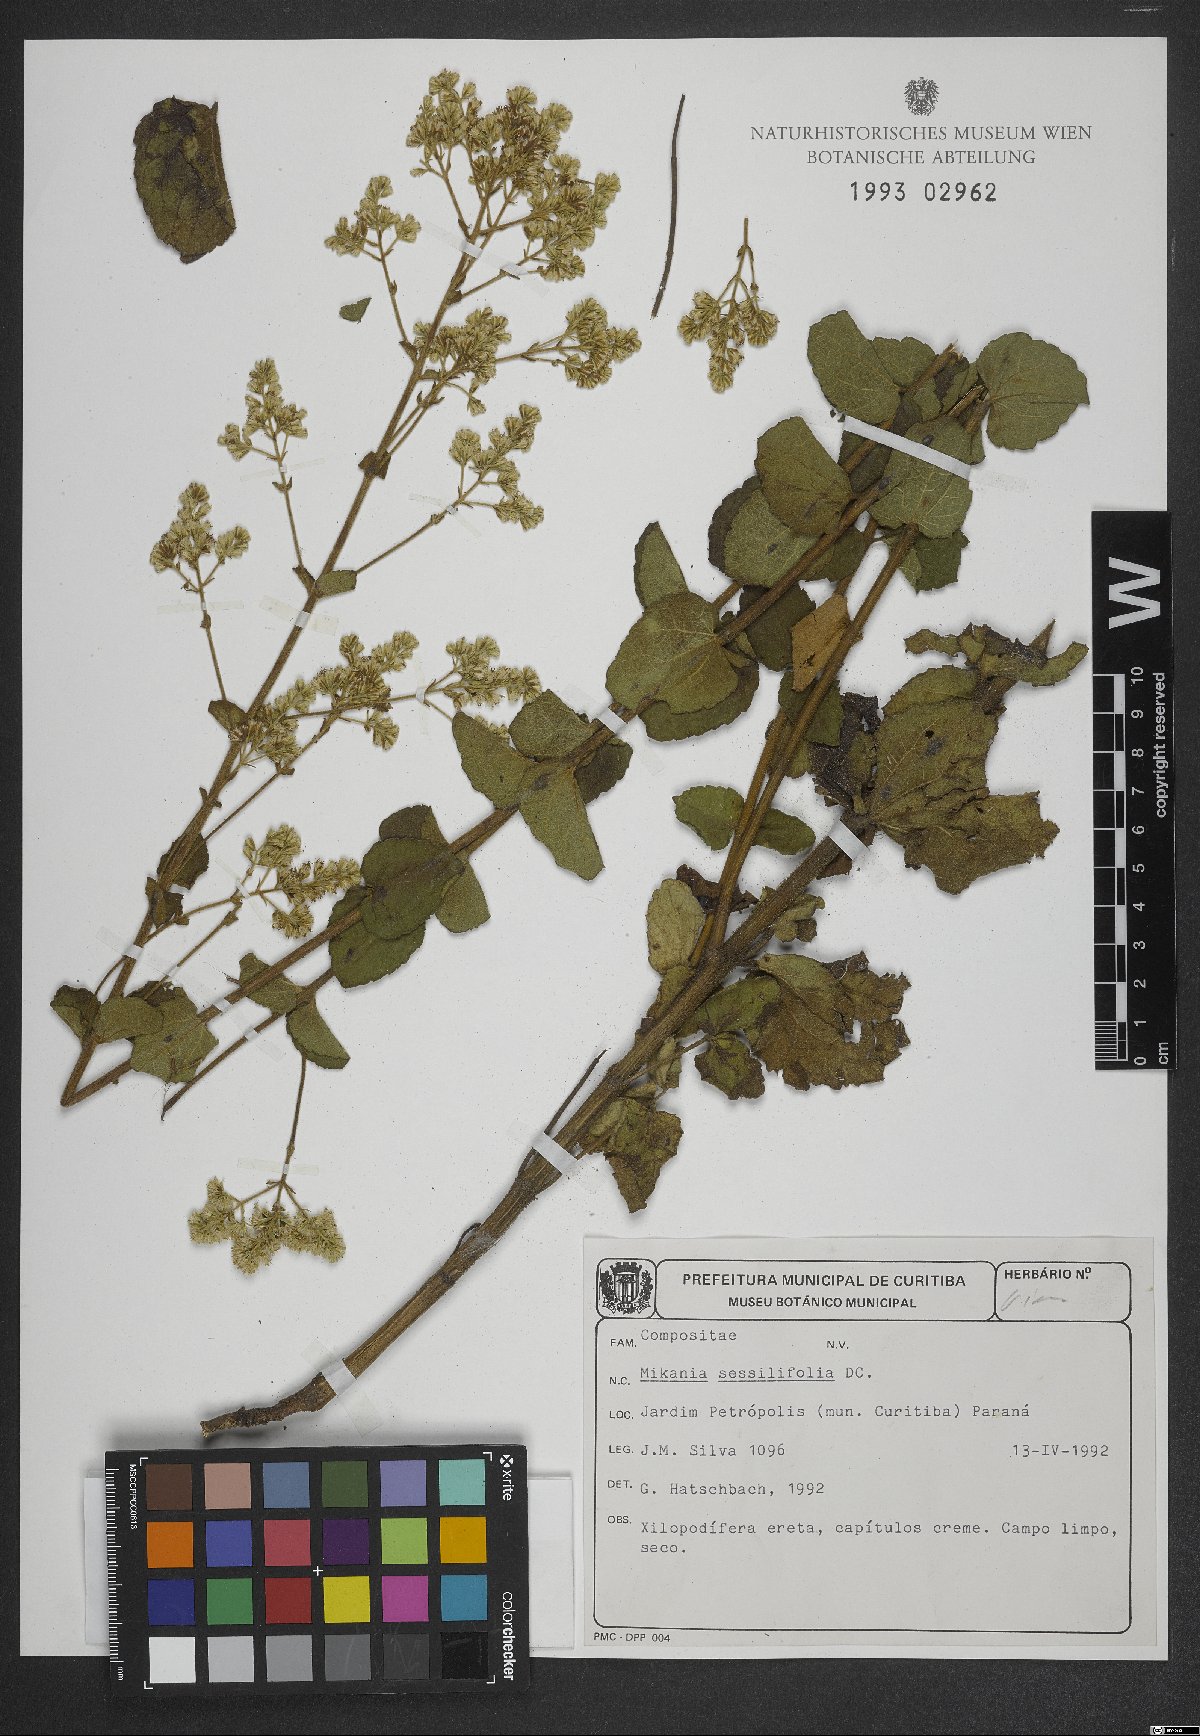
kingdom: Plantae
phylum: Tracheophyta
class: Magnoliopsida
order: Asterales
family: Asteraceae
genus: Mikania
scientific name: Mikania sessilifolia
